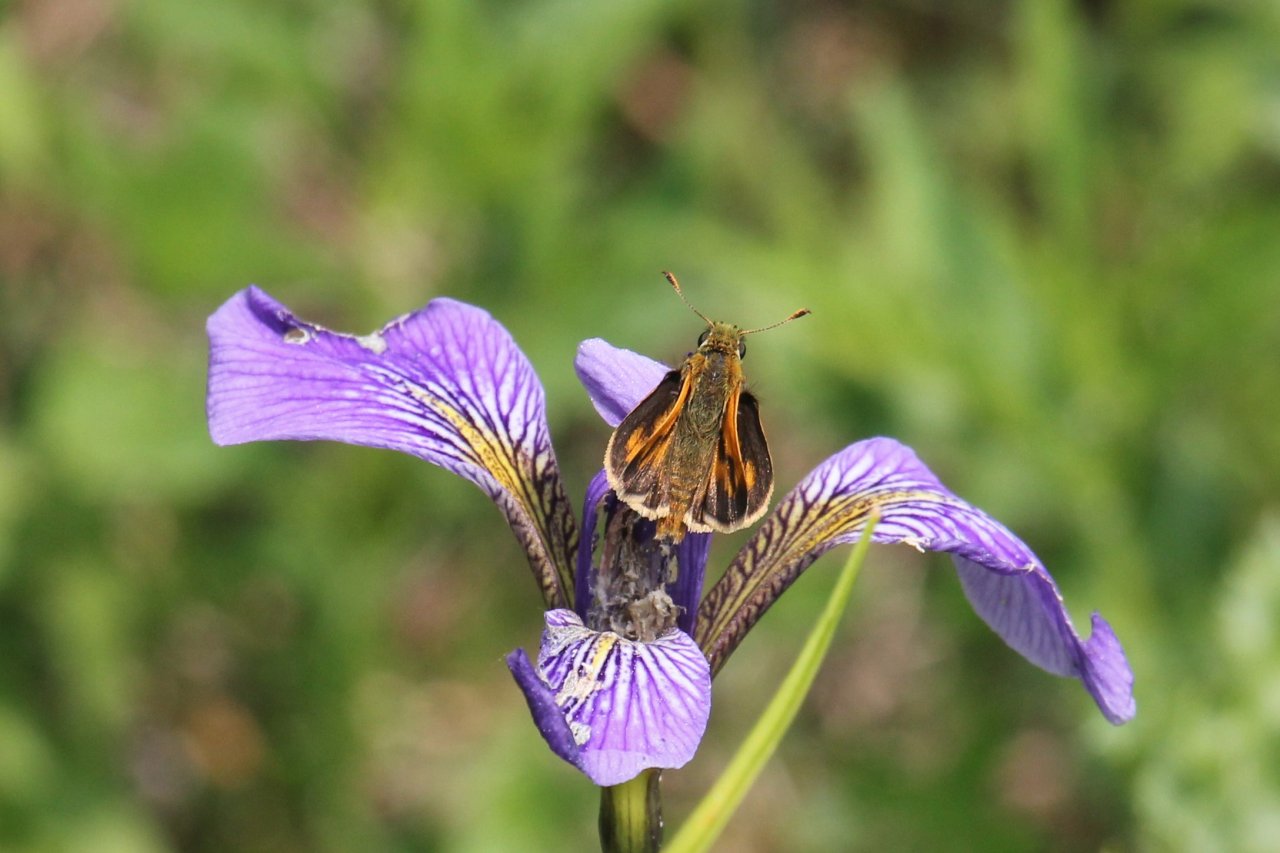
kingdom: Animalia
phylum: Arthropoda
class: Insecta
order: Lepidoptera
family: Hesperiidae
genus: Polites
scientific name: Polites
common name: Long Dash Skipper
